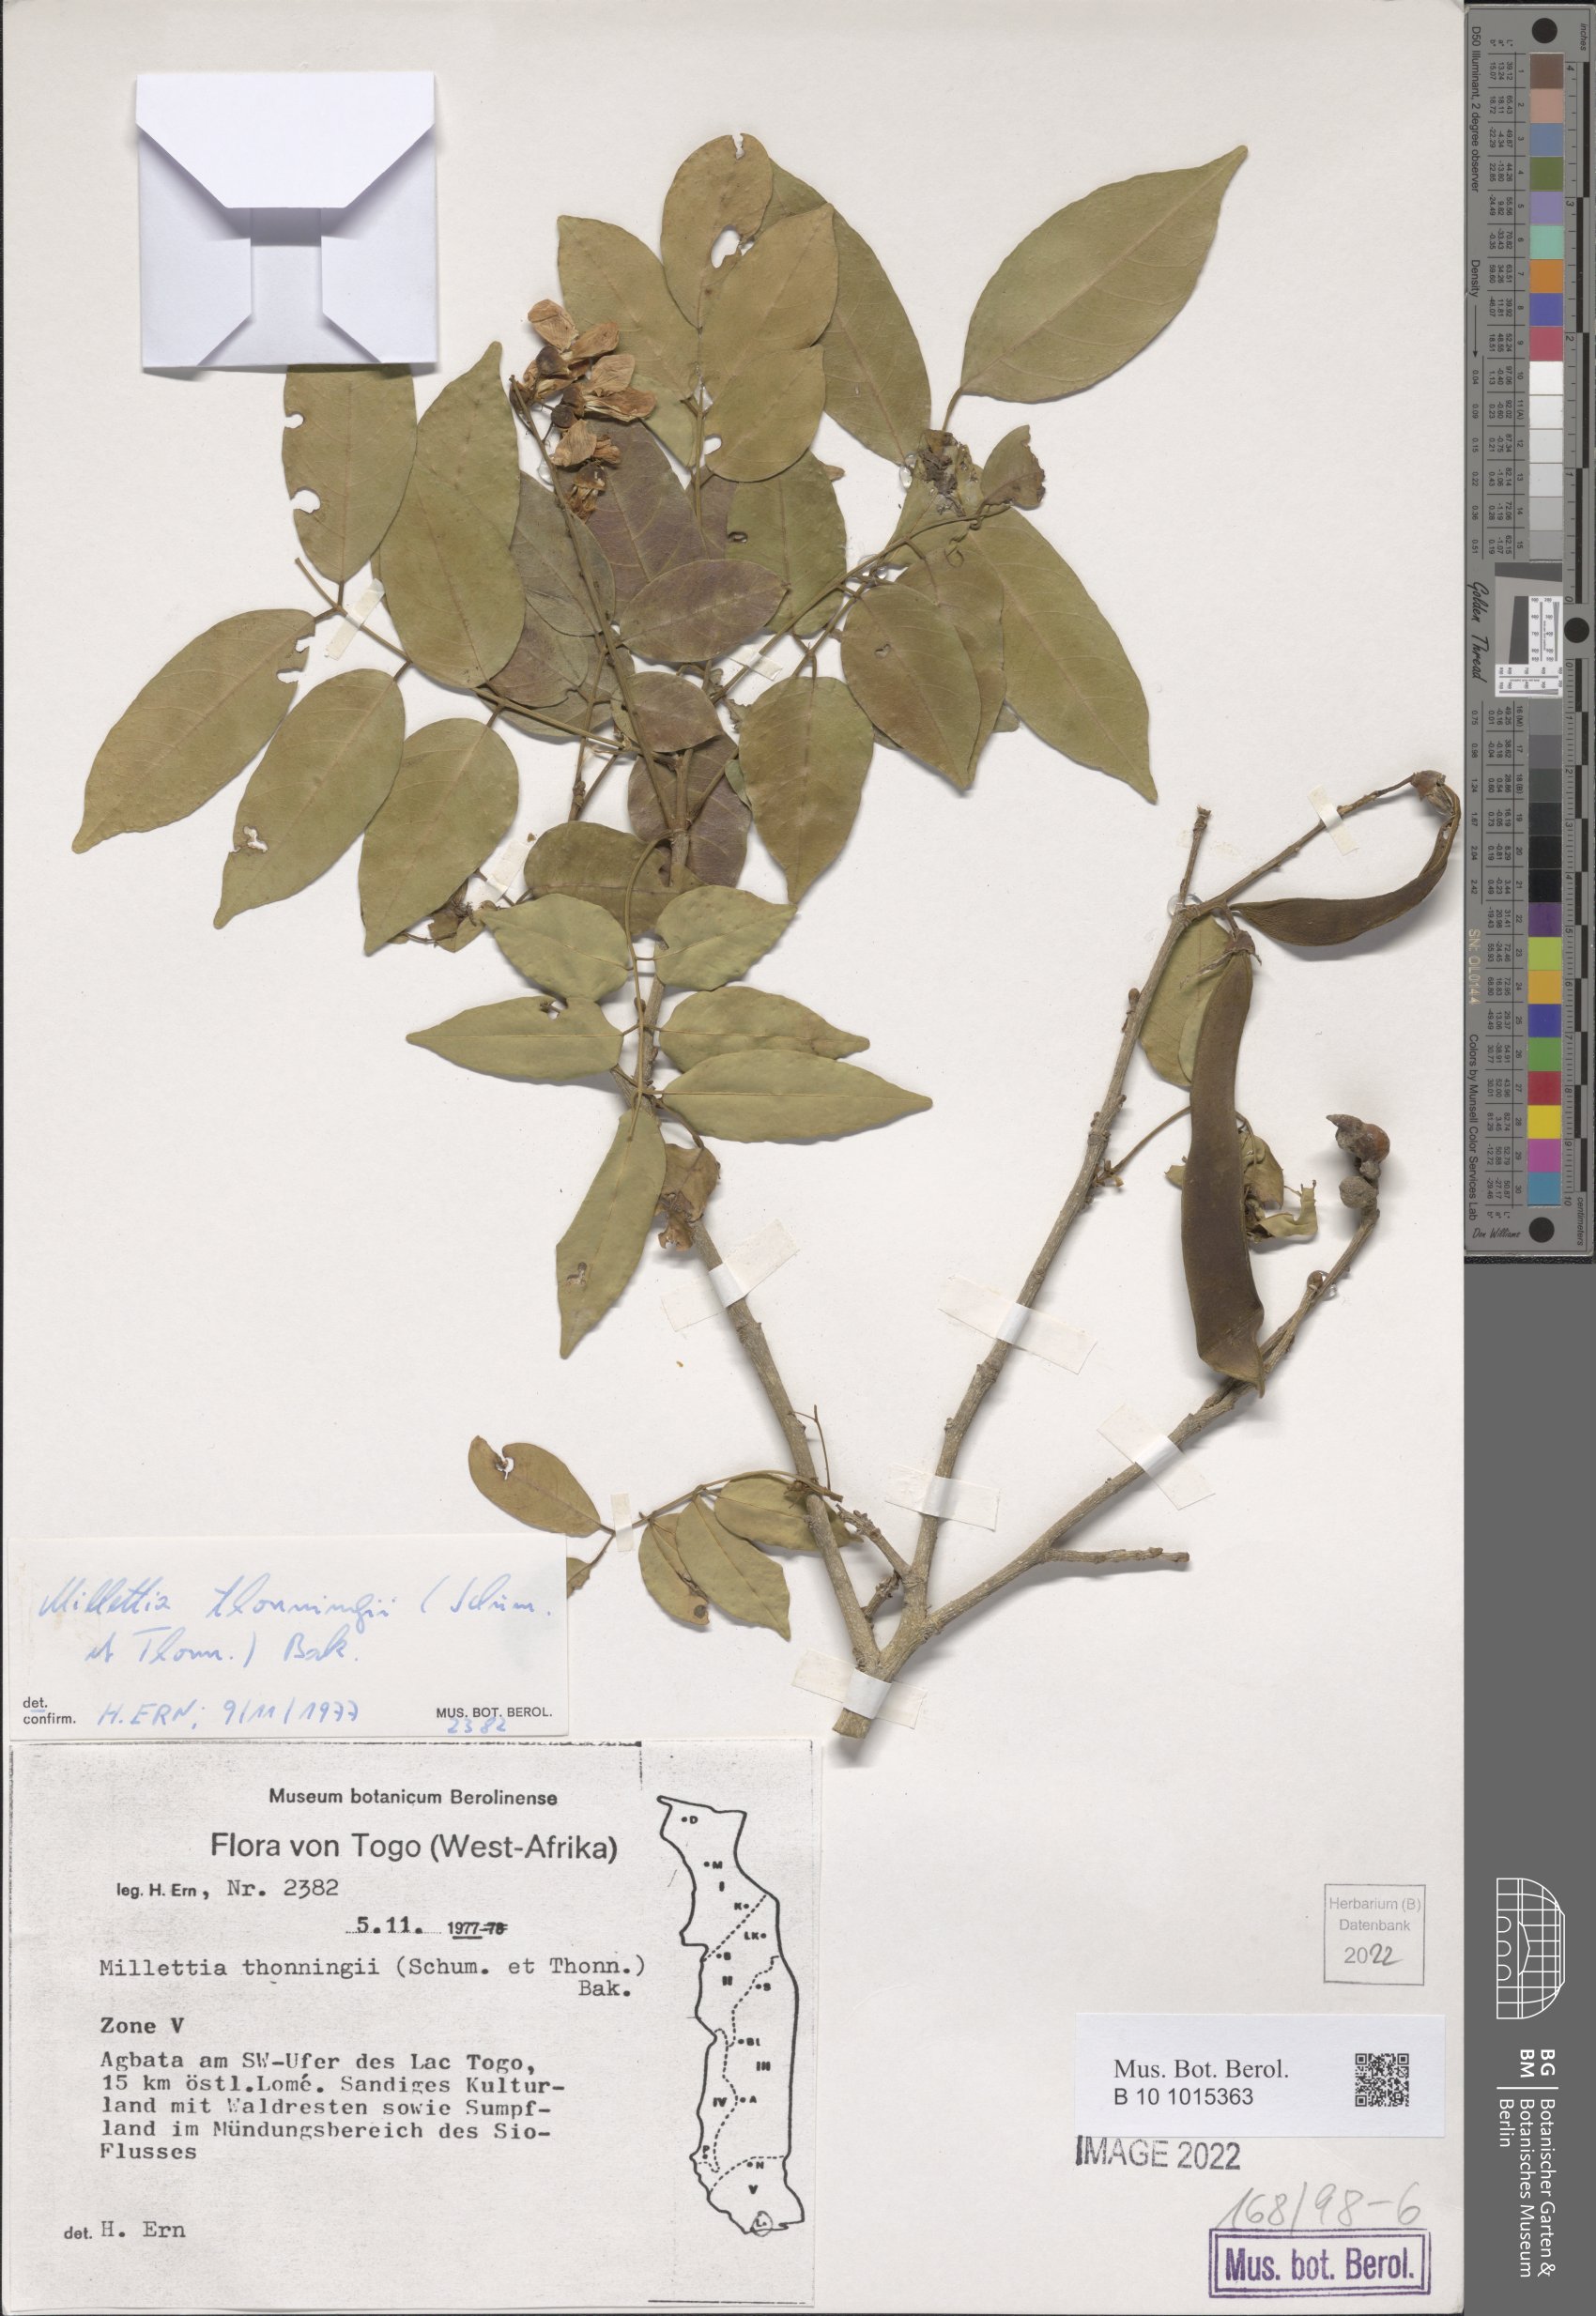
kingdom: Plantae
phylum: Tracheophyta
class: Magnoliopsida
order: Fabales
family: Fabaceae
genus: Millettia
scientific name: Millettia thonningii
